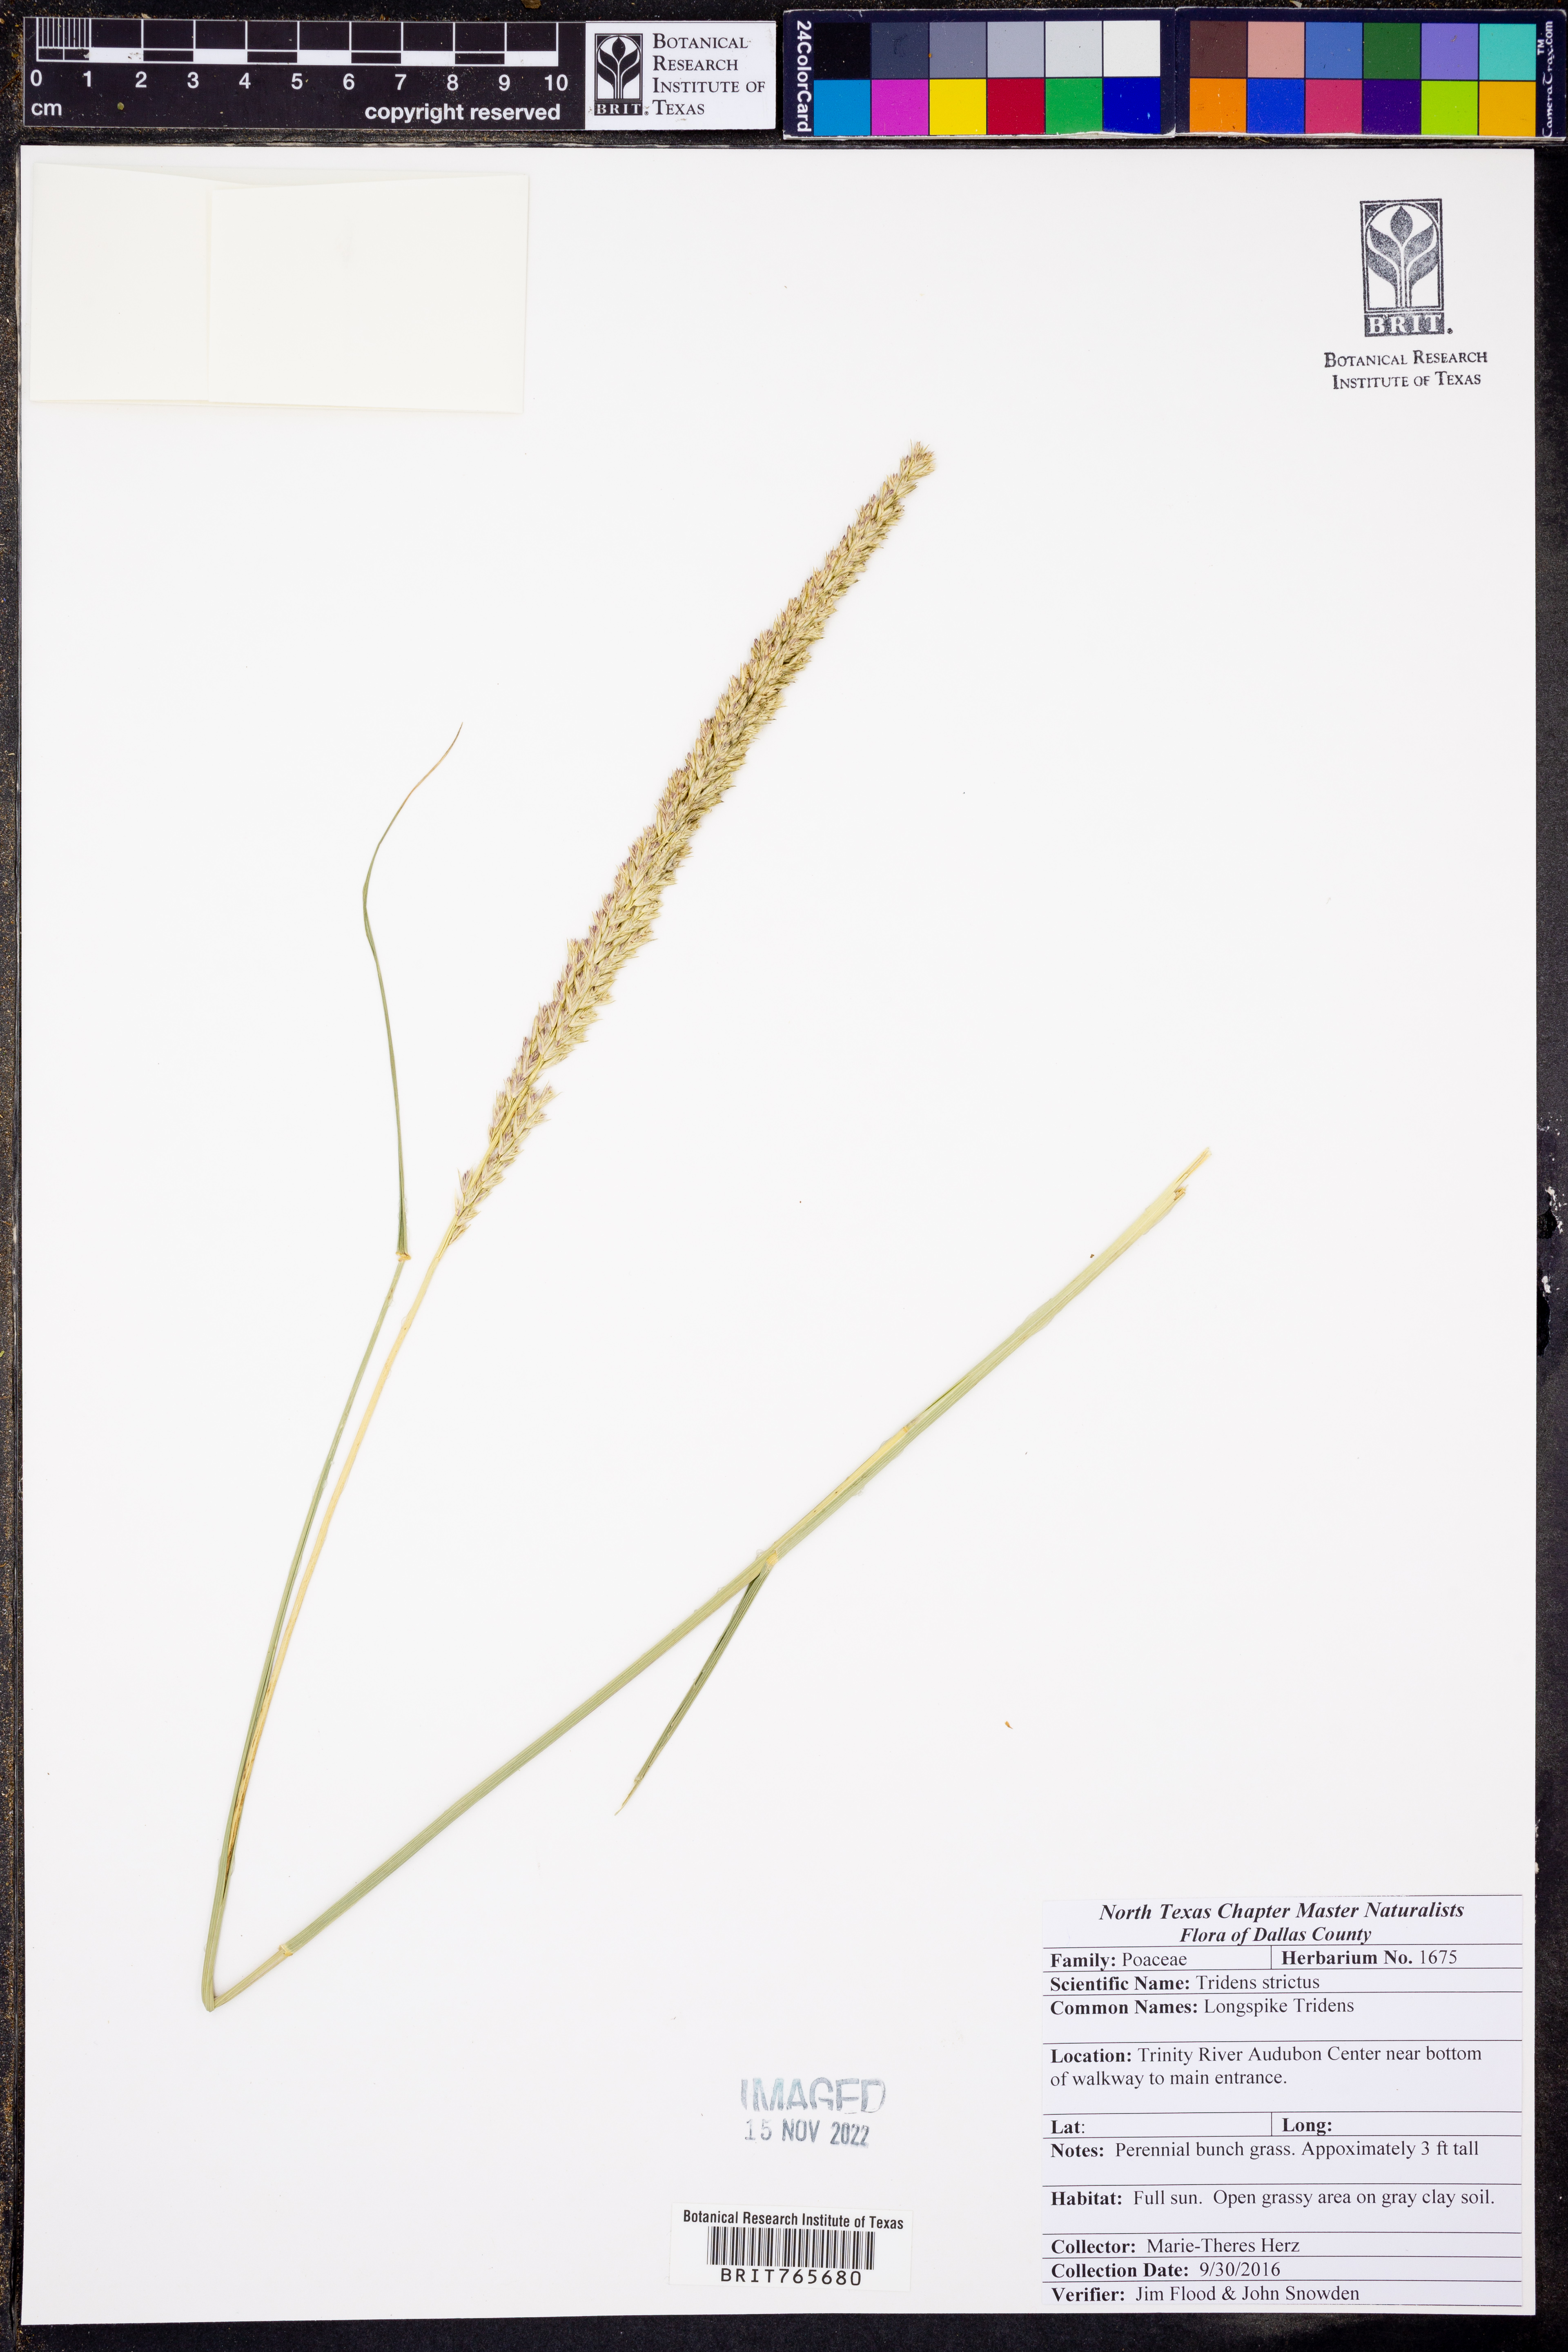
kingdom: Plantae
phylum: Tracheophyta
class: Liliopsida
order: Poales
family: Poaceae
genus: Tridens
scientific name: Tridens strictus
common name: Long-spike tridens
